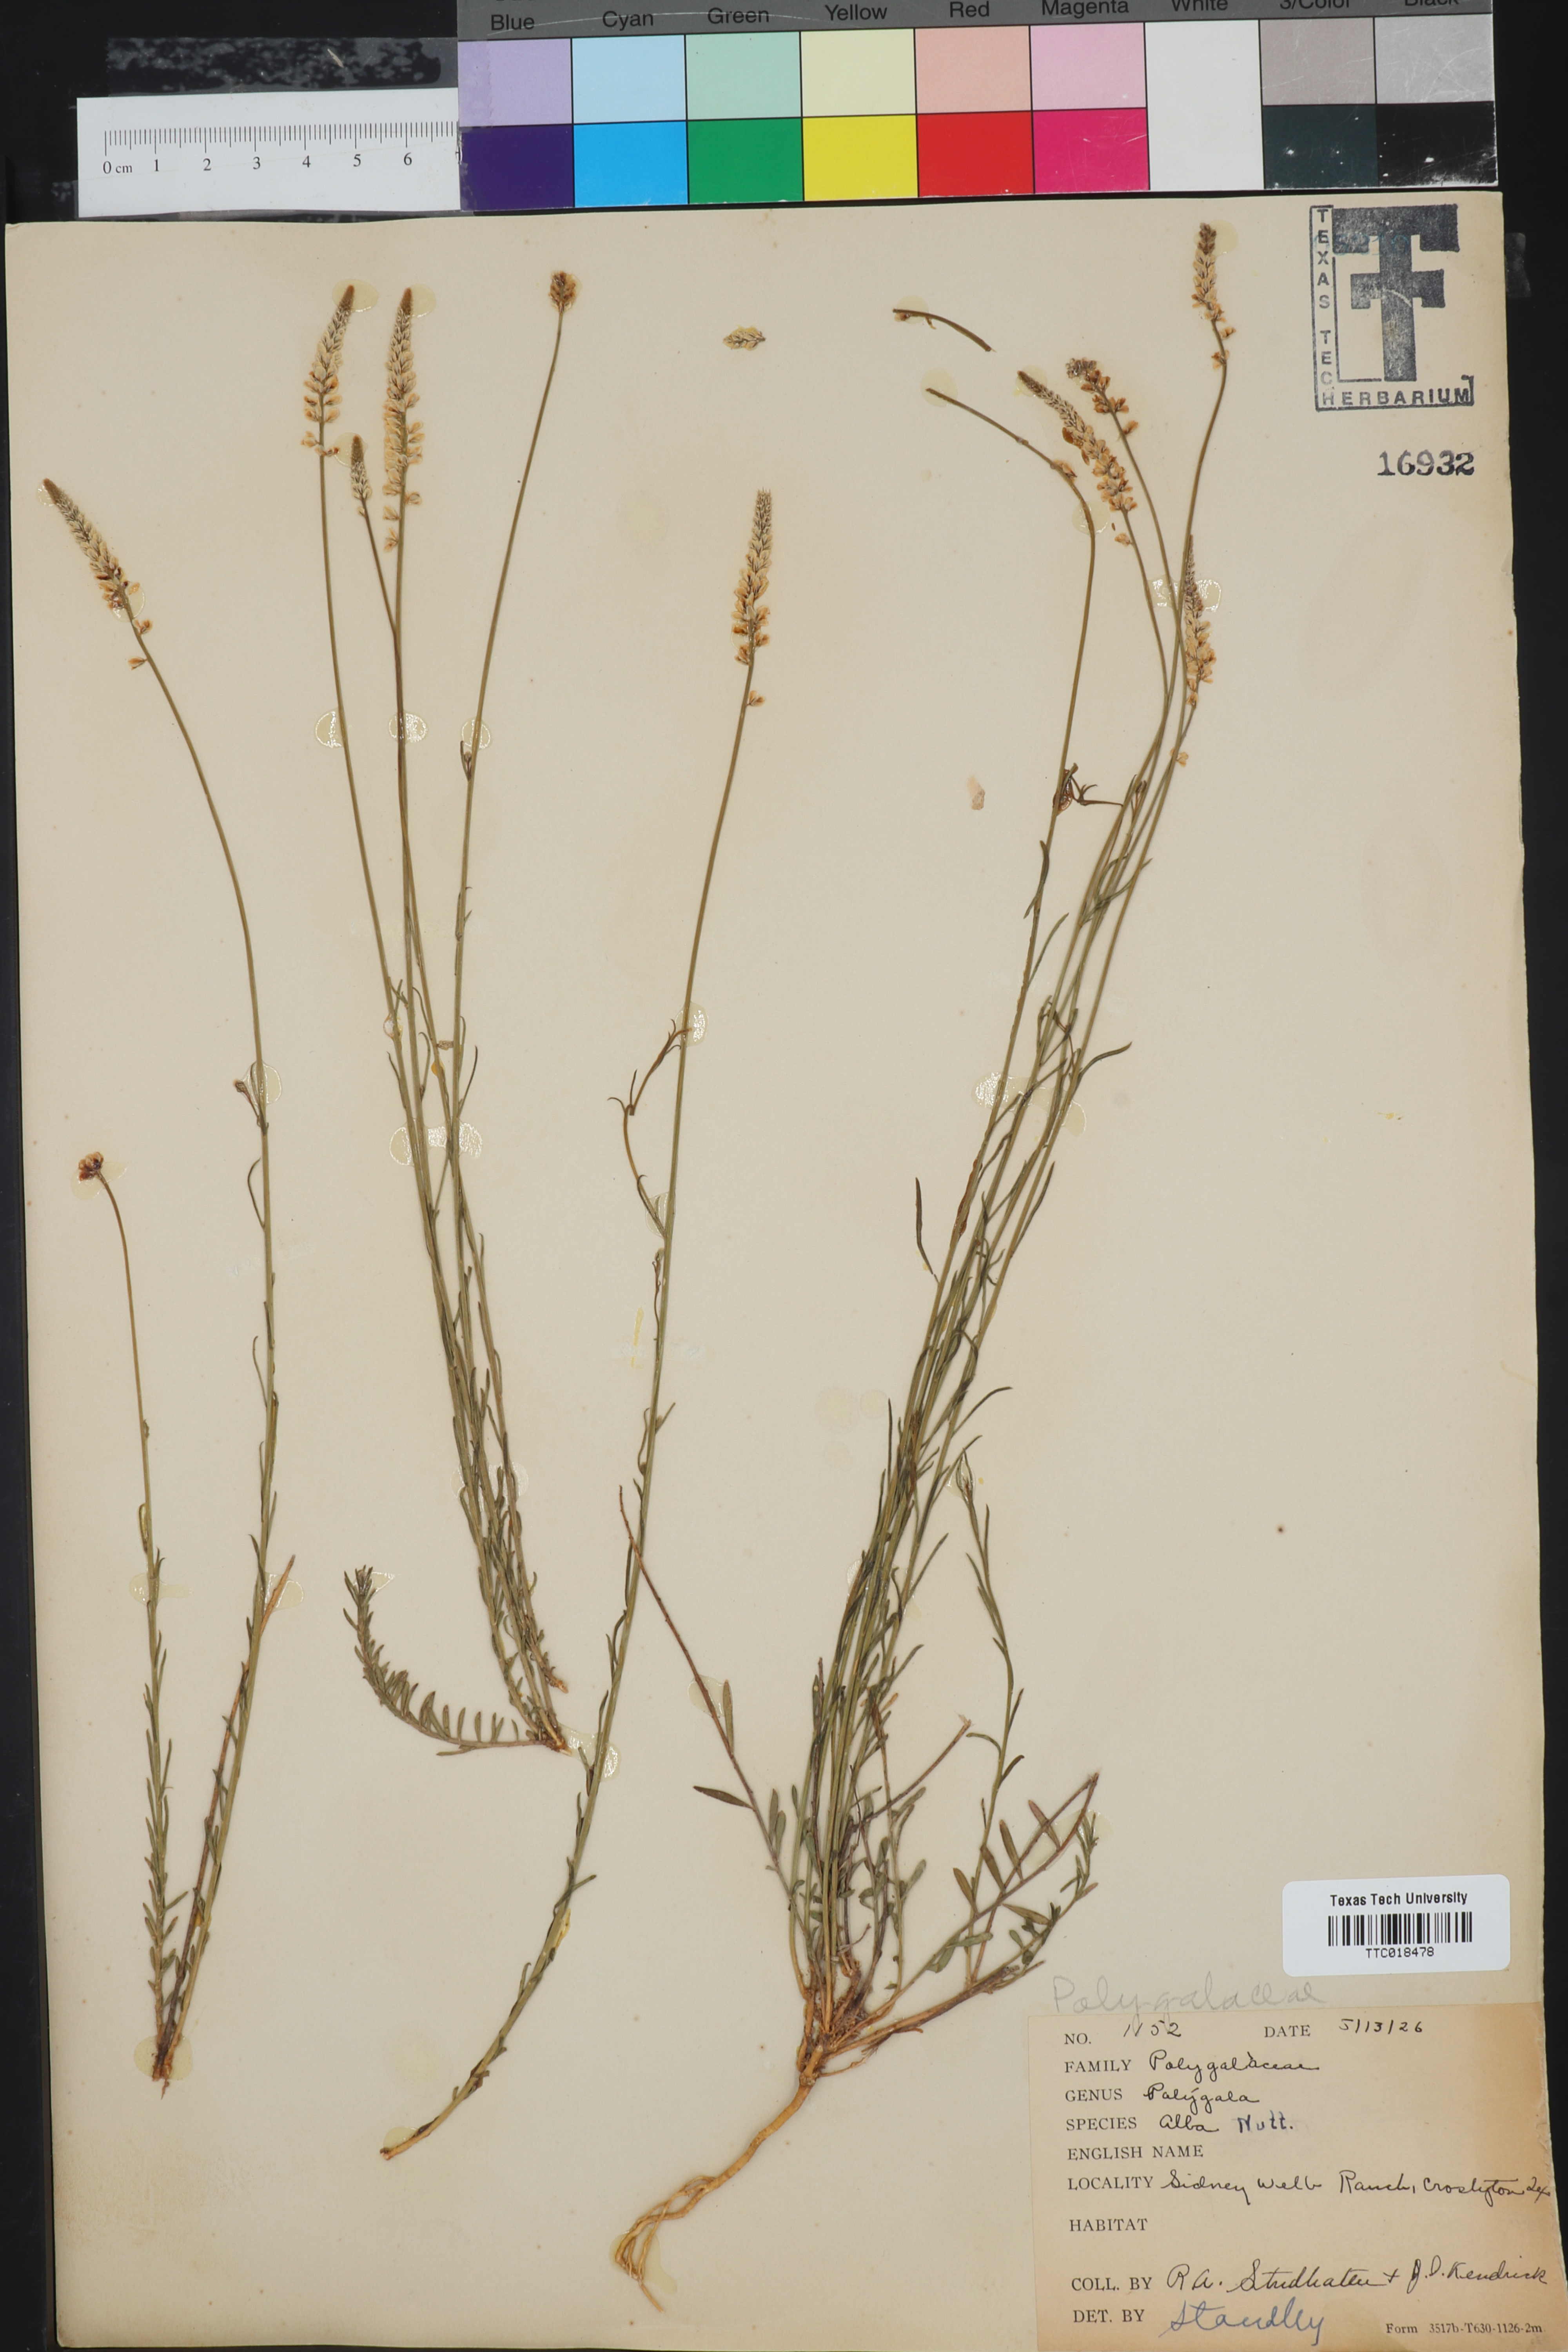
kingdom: Plantae
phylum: Tracheophyta
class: Magnoliopsida
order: Fabales
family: Polygalaceae
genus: Polygala
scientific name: Polygala alba
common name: White milkwort
